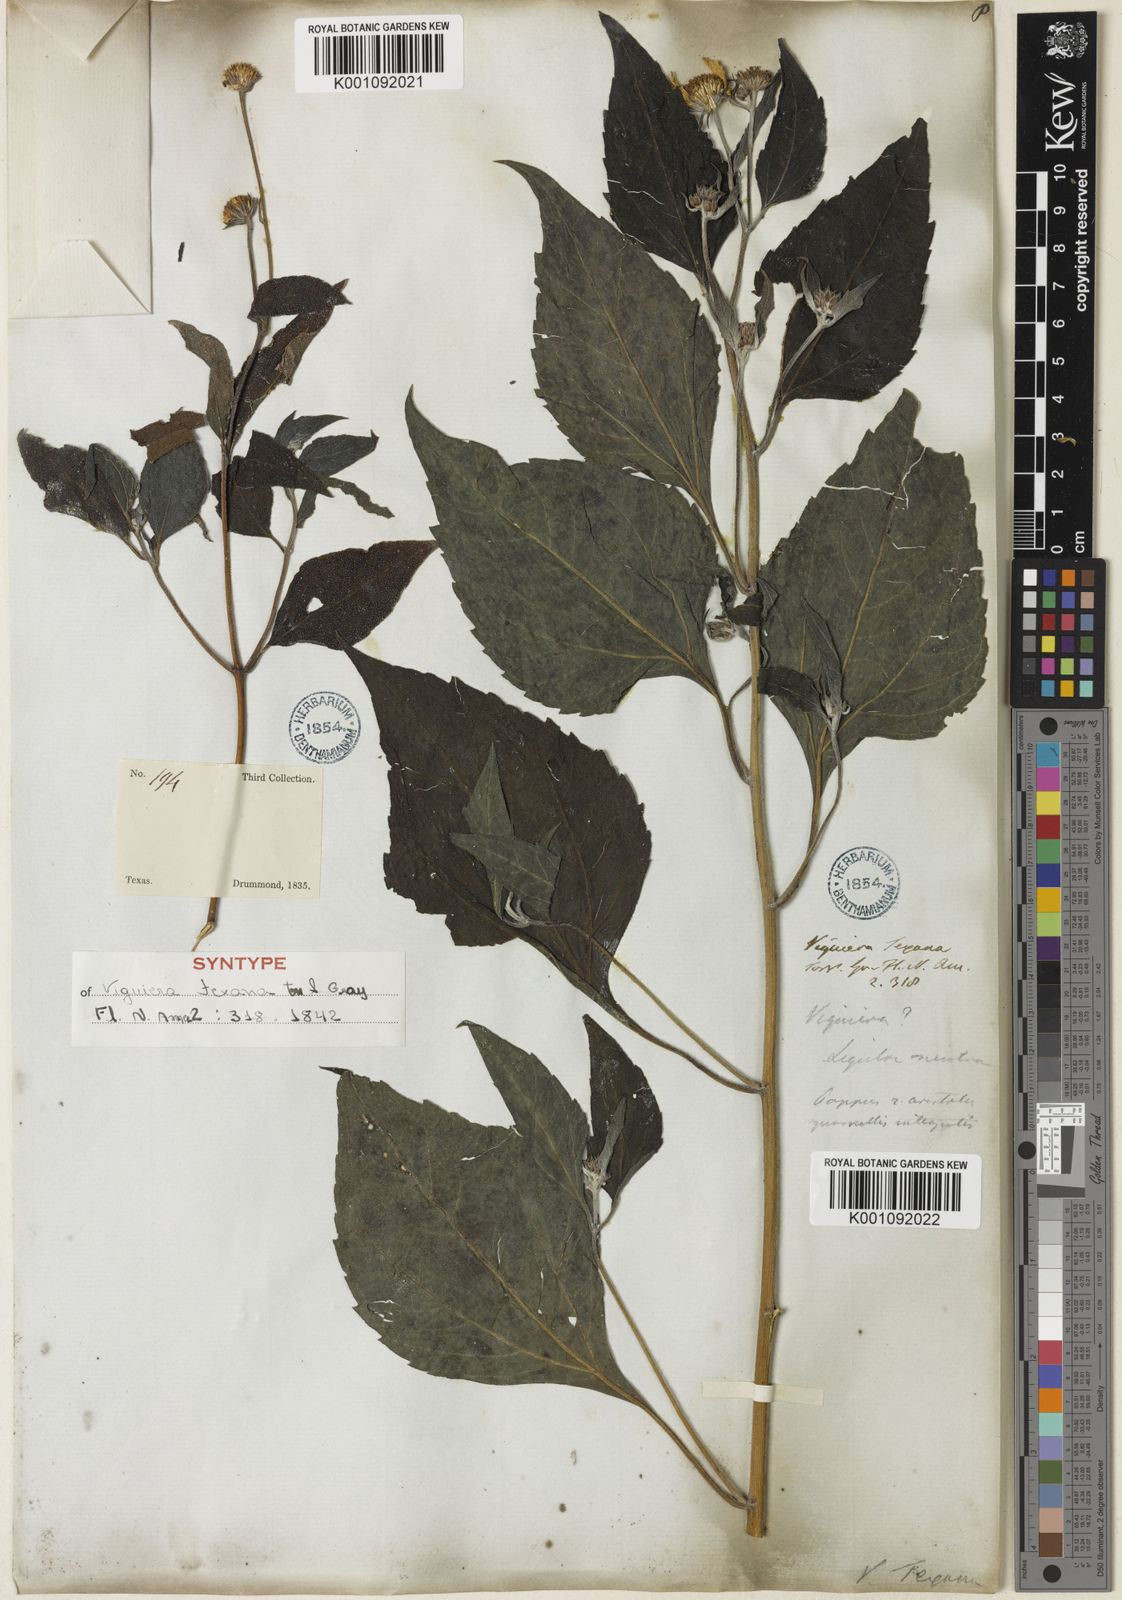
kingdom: Plantae
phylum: Tracheophyta
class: Magnoliopsida
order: Asterales
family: Asteraceae
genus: Viguiera
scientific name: Viguiera dentata
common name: Toothleaf
